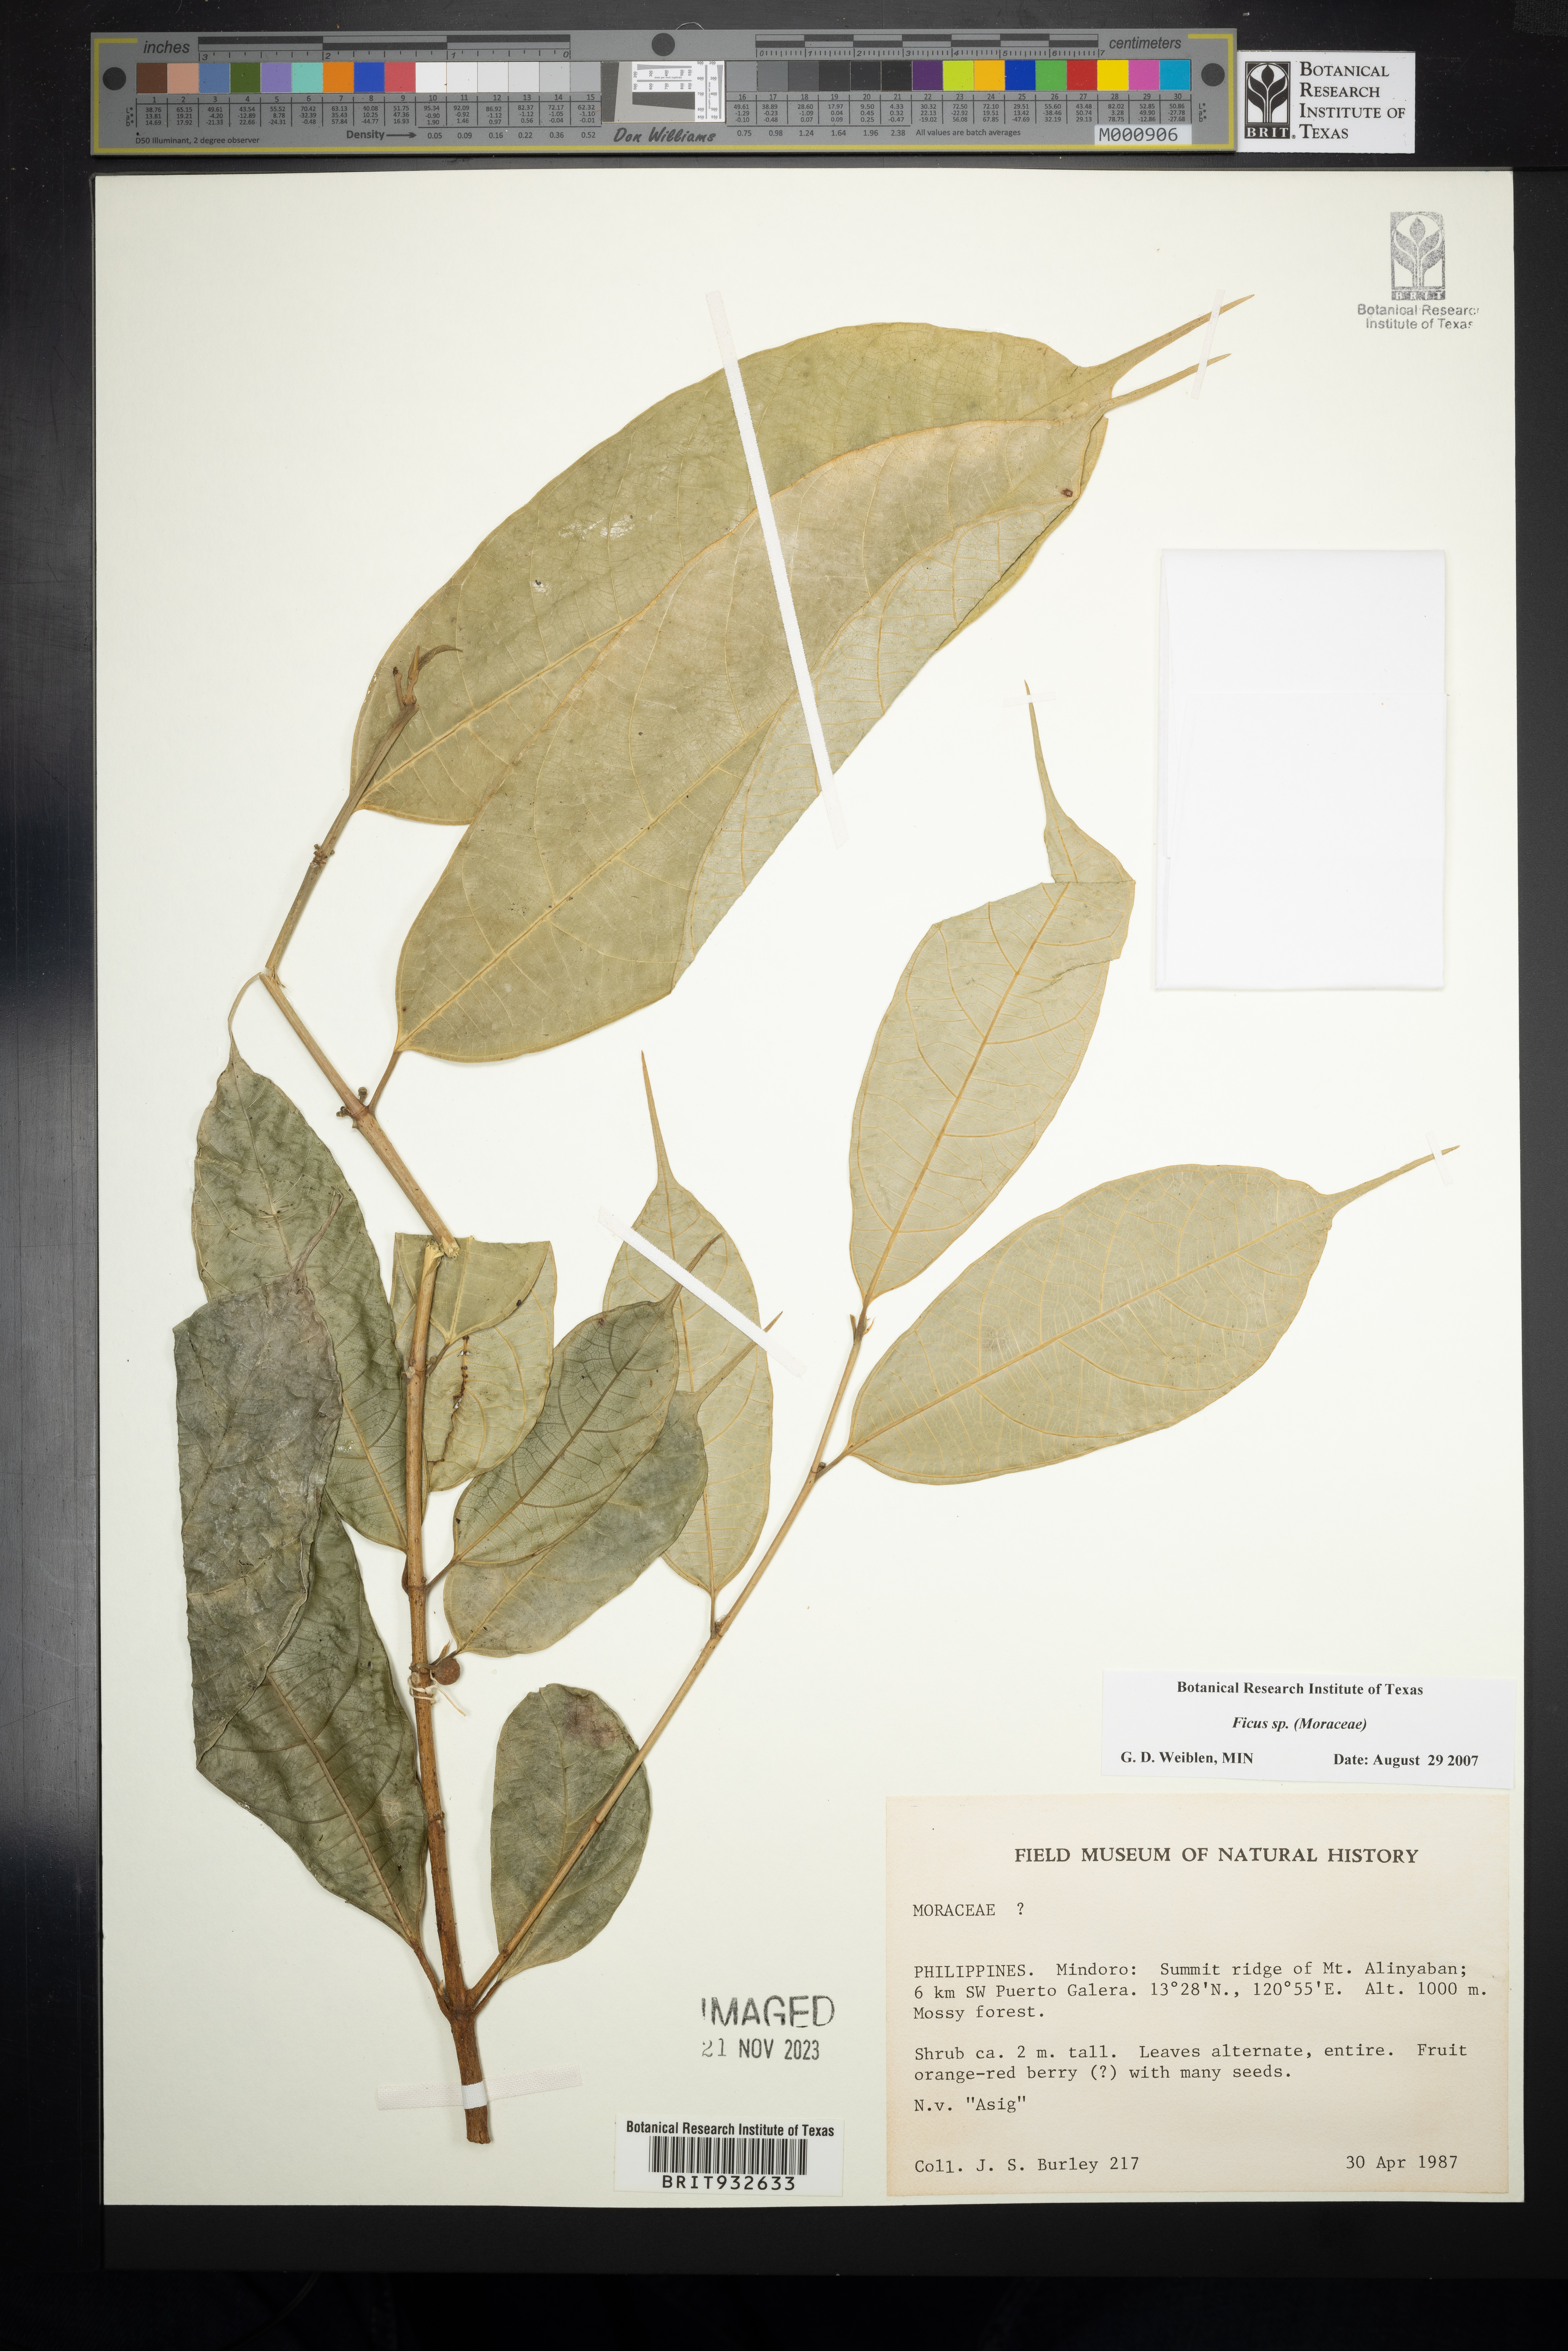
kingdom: Plantae
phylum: Tracheophyta
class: Magnoliopsida
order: Rosales
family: Moraceae
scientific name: Moraceae
